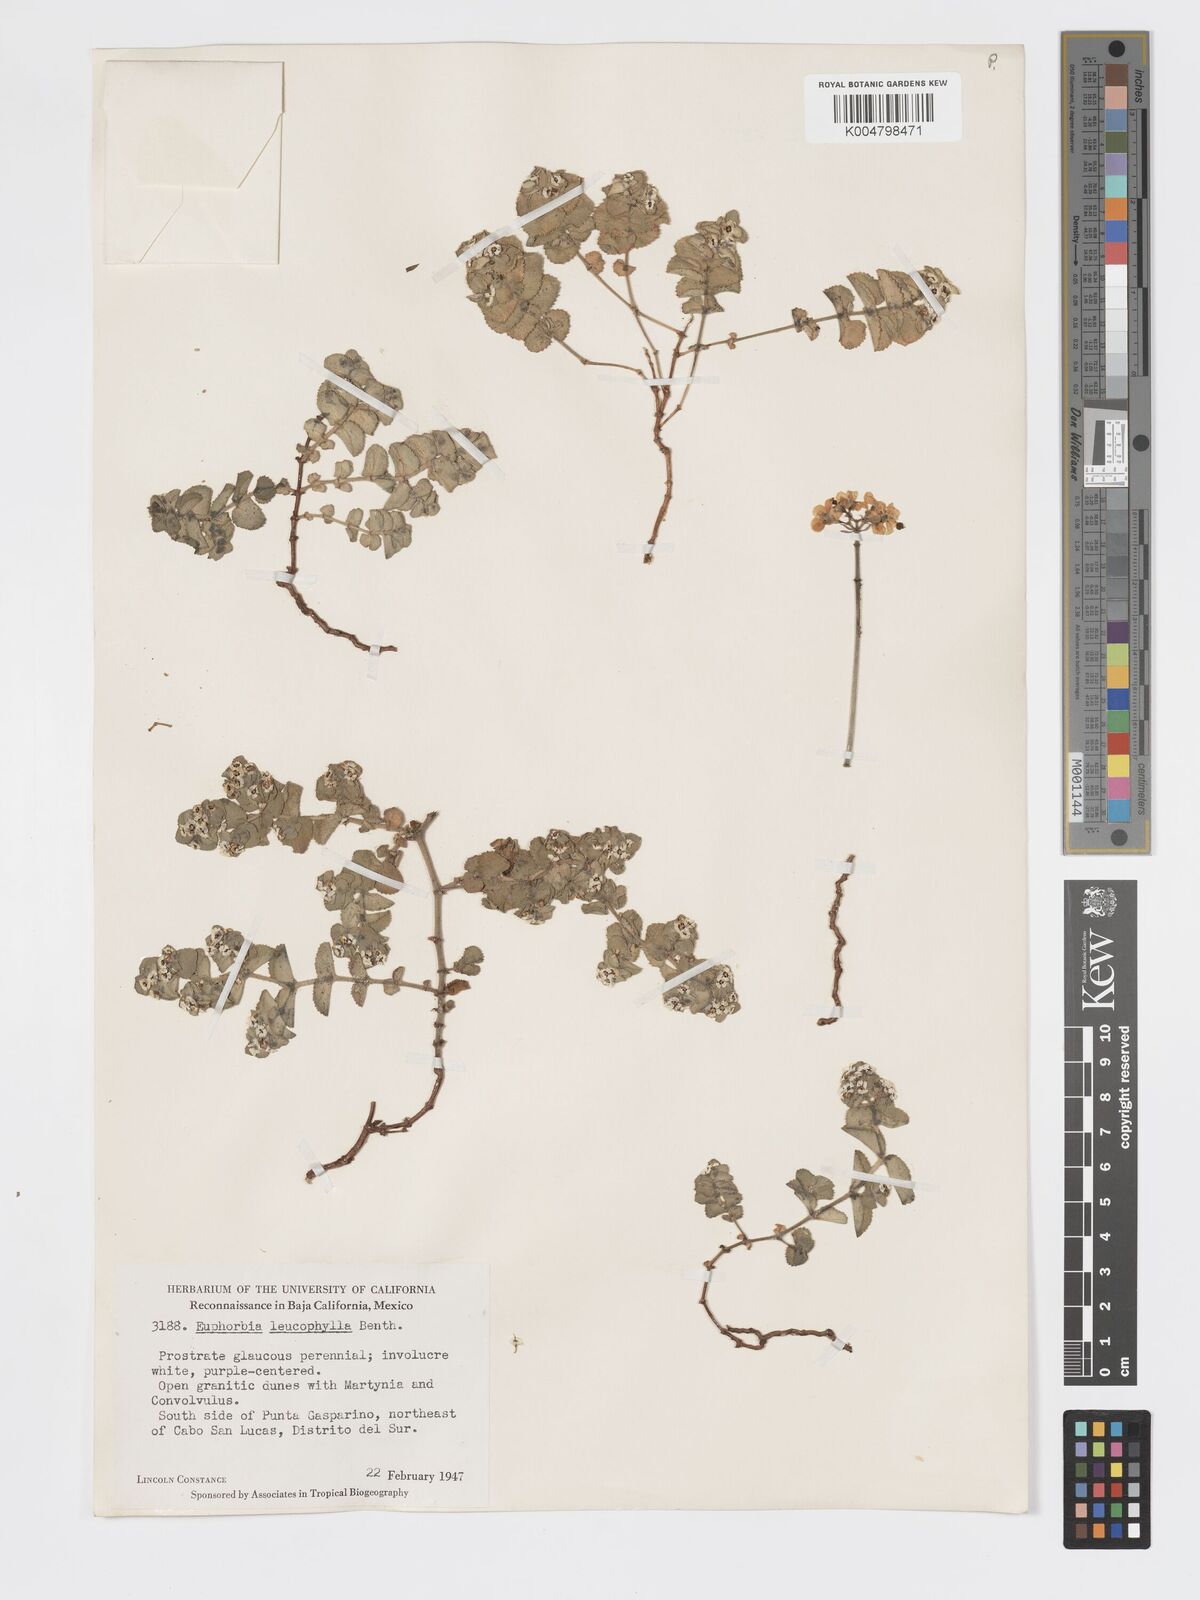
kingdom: Plantae
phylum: Tracheophyta
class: Magnoliopsida
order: Malpighiales
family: Euphorbiaceae
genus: Euphorbia
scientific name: Euphorbia leucophylla
